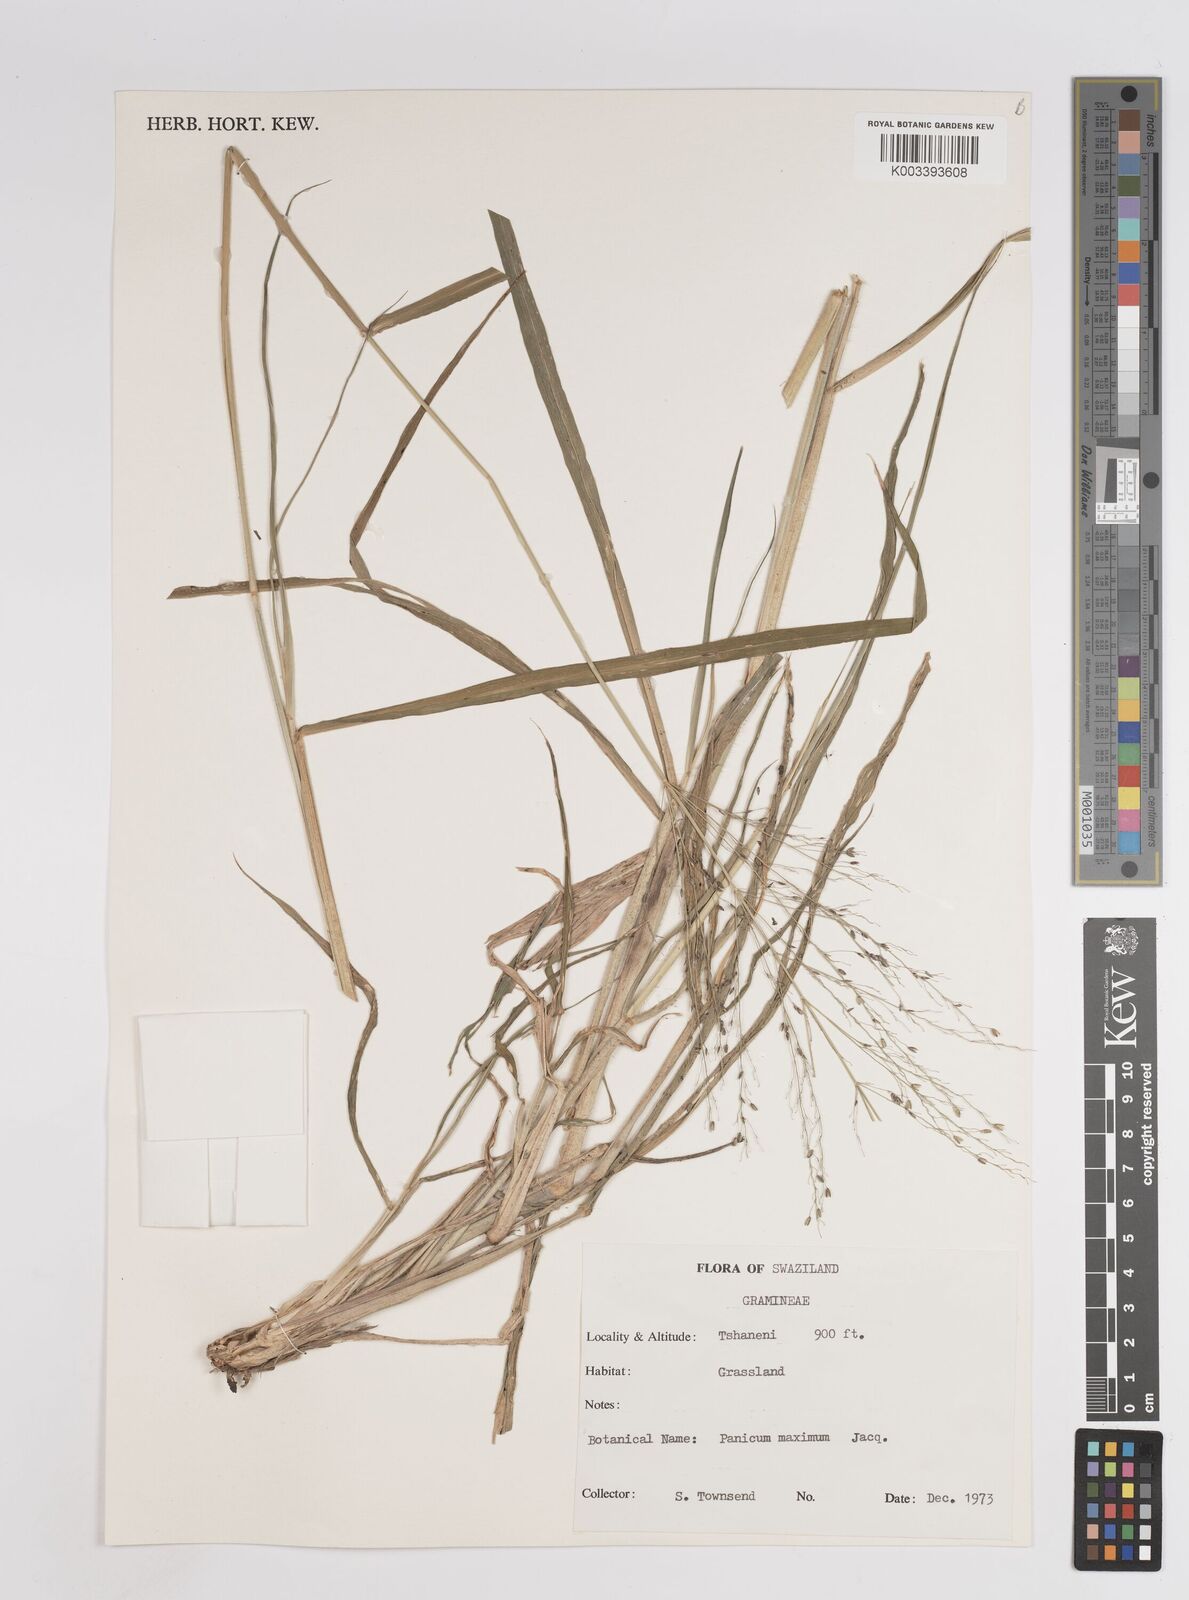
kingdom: Plantae
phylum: Tracheophyta
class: Liliopsida
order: Poales
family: Poaceae
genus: Megathyrsus
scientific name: Megathyrsus maximus
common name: Guineagrass
